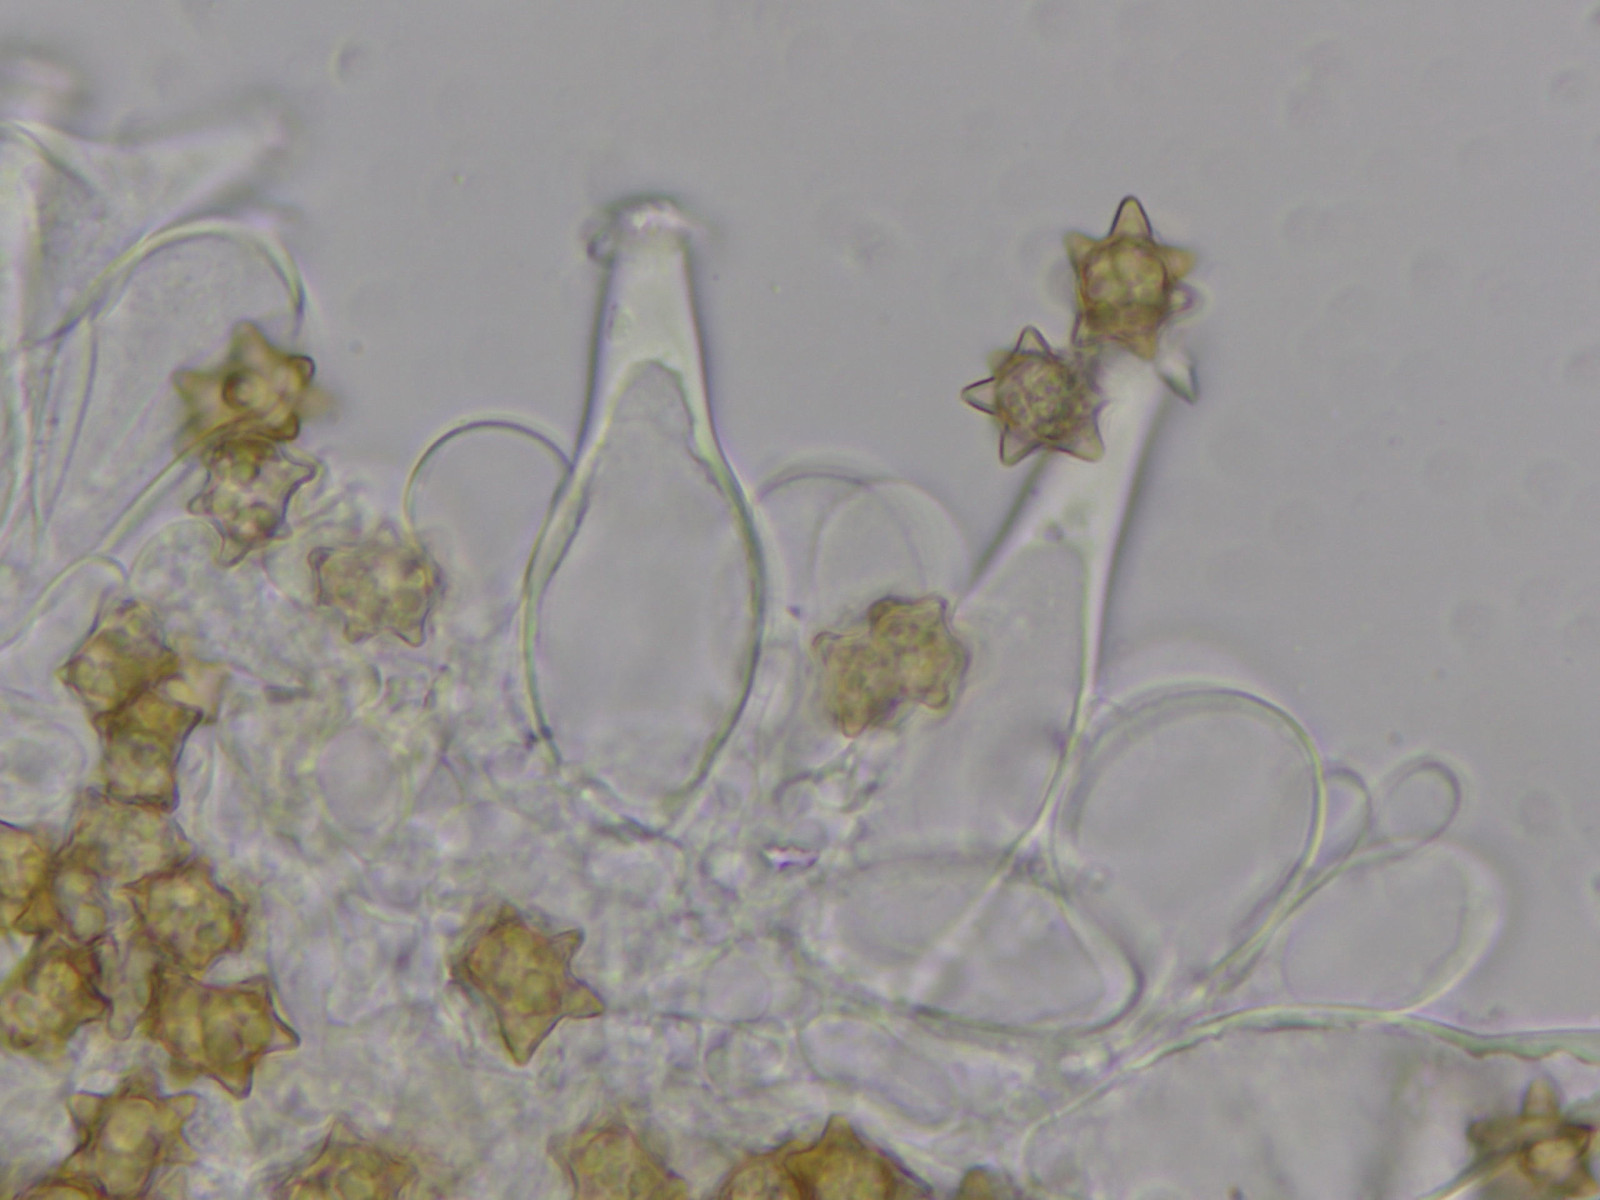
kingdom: Fungi
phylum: Basidiomycota
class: Agaricomycetes
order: Agaricales
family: Inocybaceae
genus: Inocybe
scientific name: Inocybe asterospora
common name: stjernesporet trævlhat
